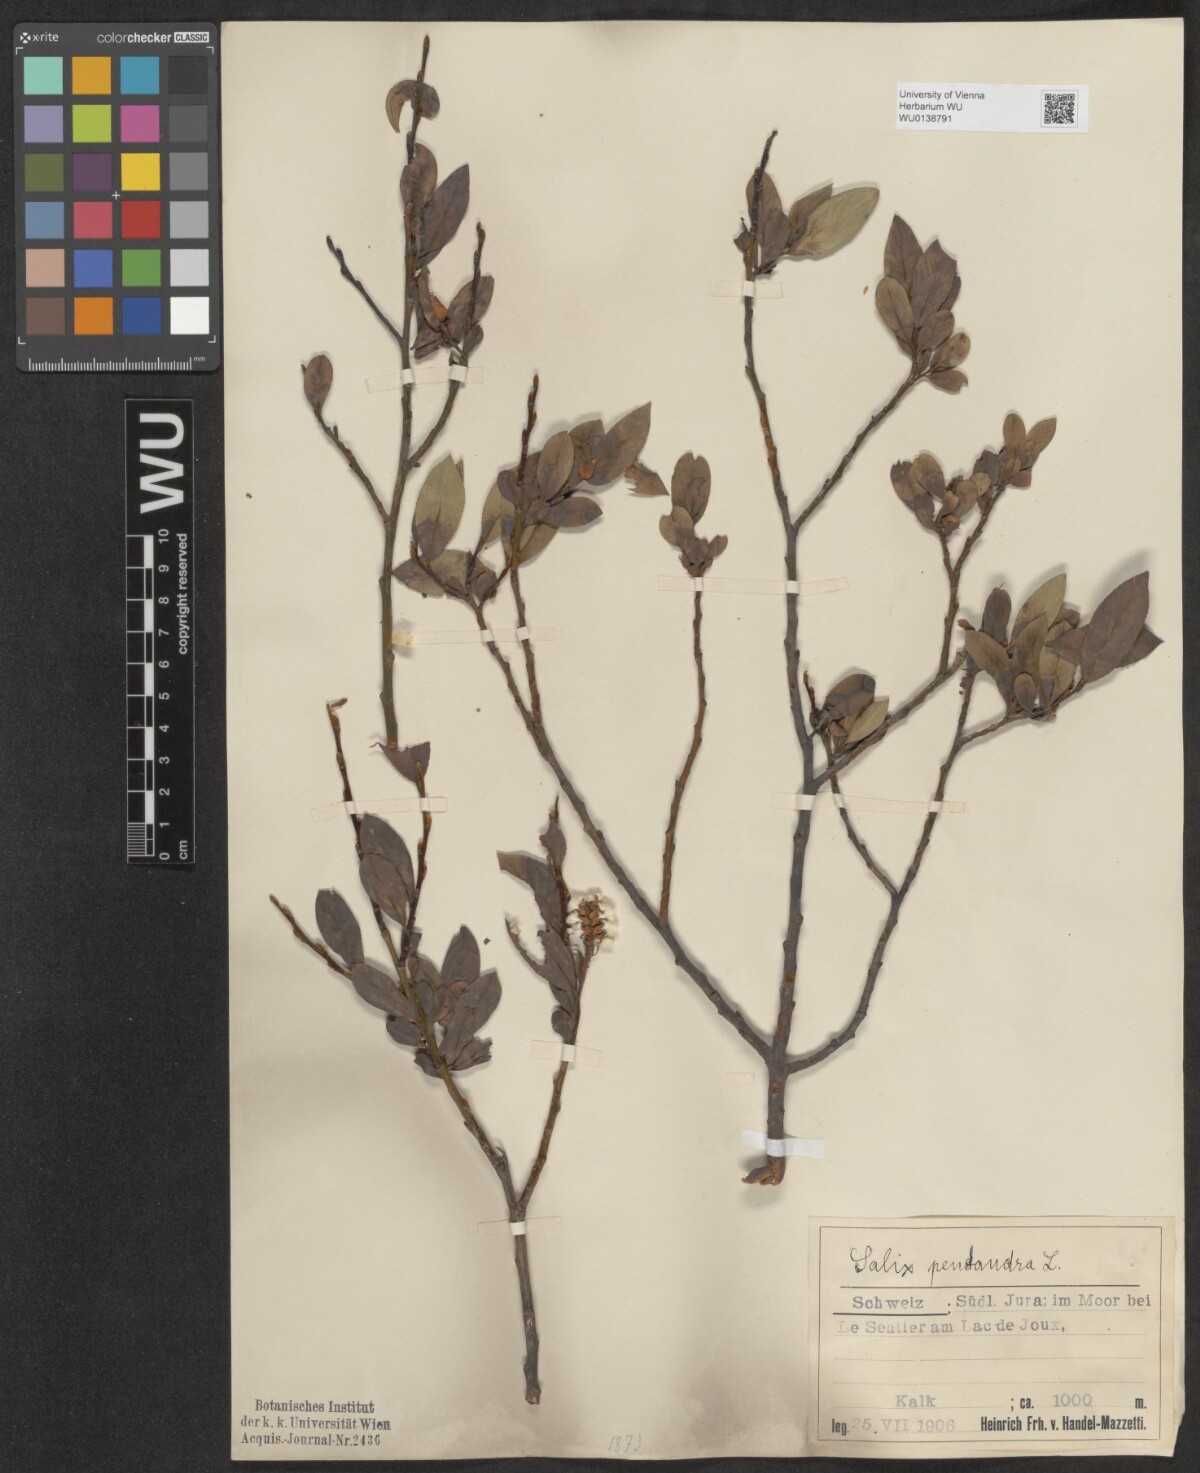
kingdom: Plantae
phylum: Tracheophyta
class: Magnoliopsida
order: Malpighiales
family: Salicaceae
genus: Salix
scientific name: Salix pentandra
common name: Bay willow
